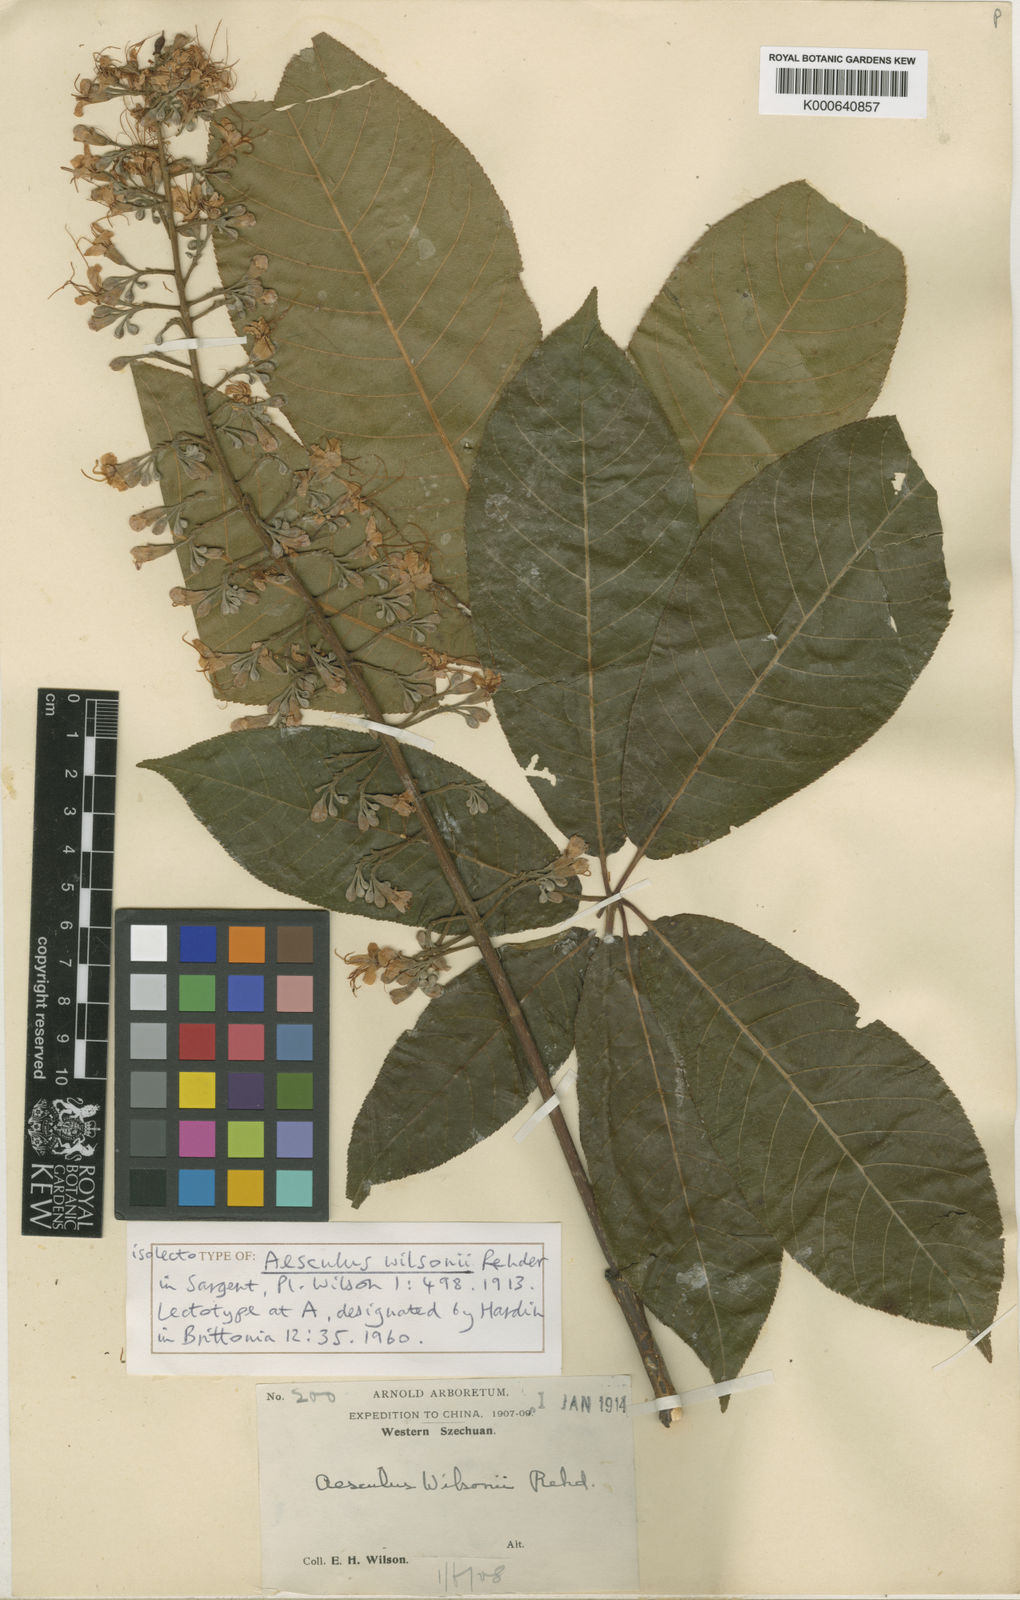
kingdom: Plantae
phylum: Tracheophyta
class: Magnoliopsida
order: Sapindales
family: Sapindaceae
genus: Aesculus
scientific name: Aesculus chinensis
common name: Chinese horse-chestnut
